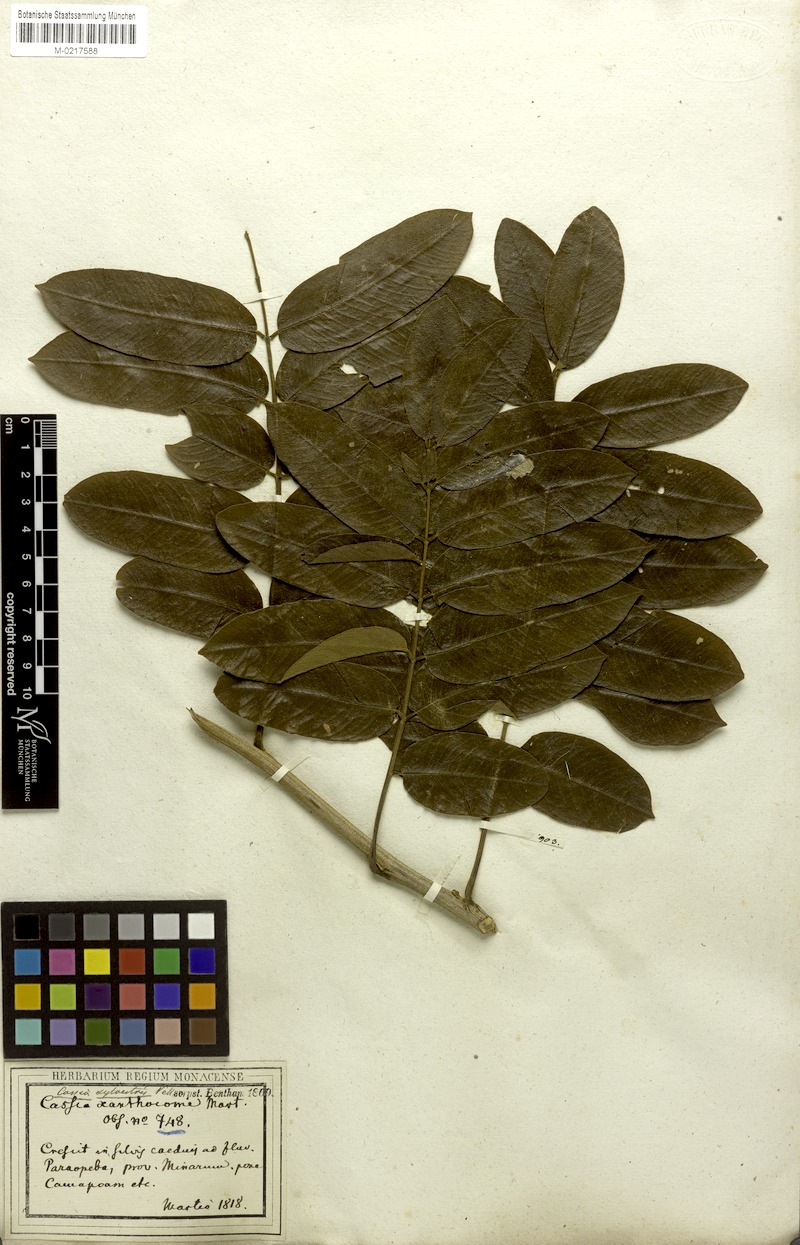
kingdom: Plantae
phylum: Tracheophyta
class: Magnoliopsida
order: Fabales
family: Fabaceae
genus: Senna
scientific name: Senna silvestris
